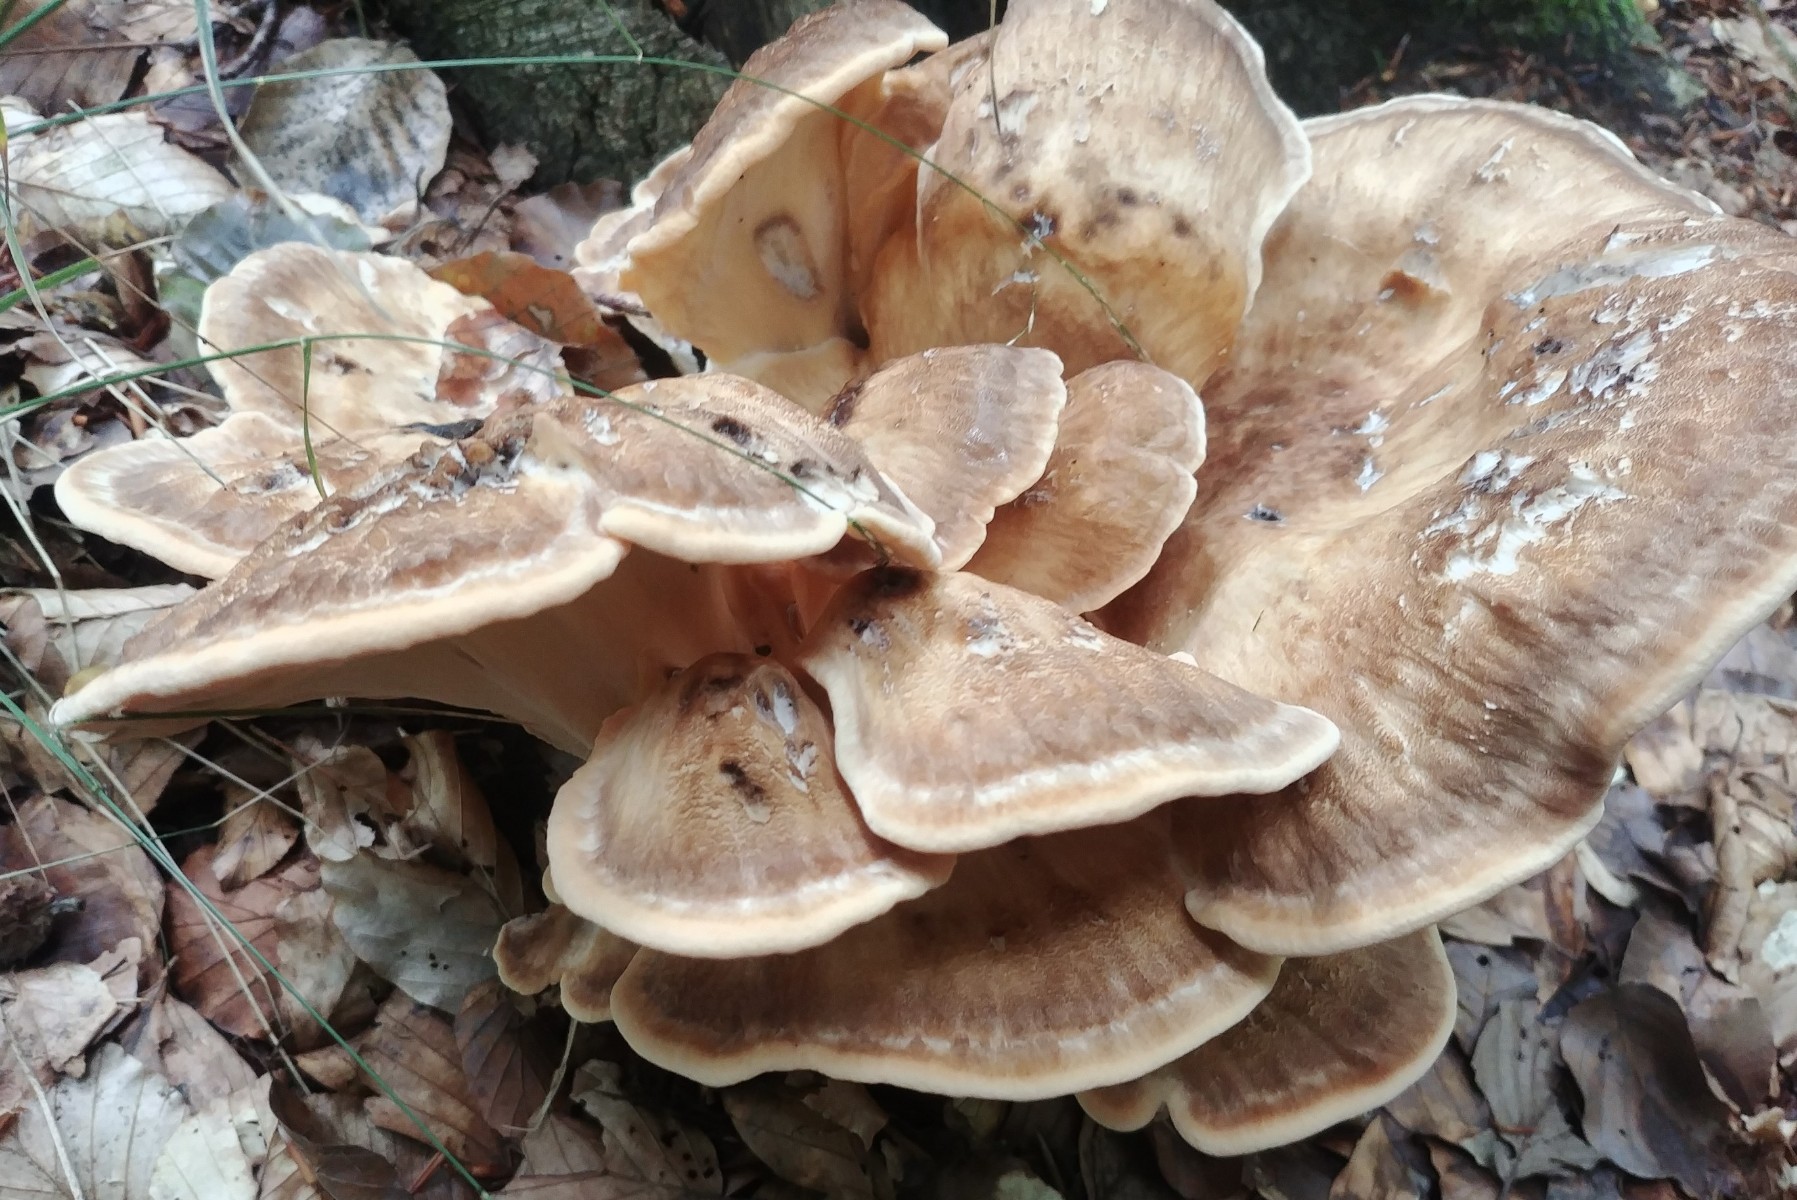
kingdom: Fungi
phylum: Basidiomycota
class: Agaricomycetes
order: Polyporales
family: Meripilaceae
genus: Meripilus
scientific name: Meripilus giganteus
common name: kæmpeporesvamp
